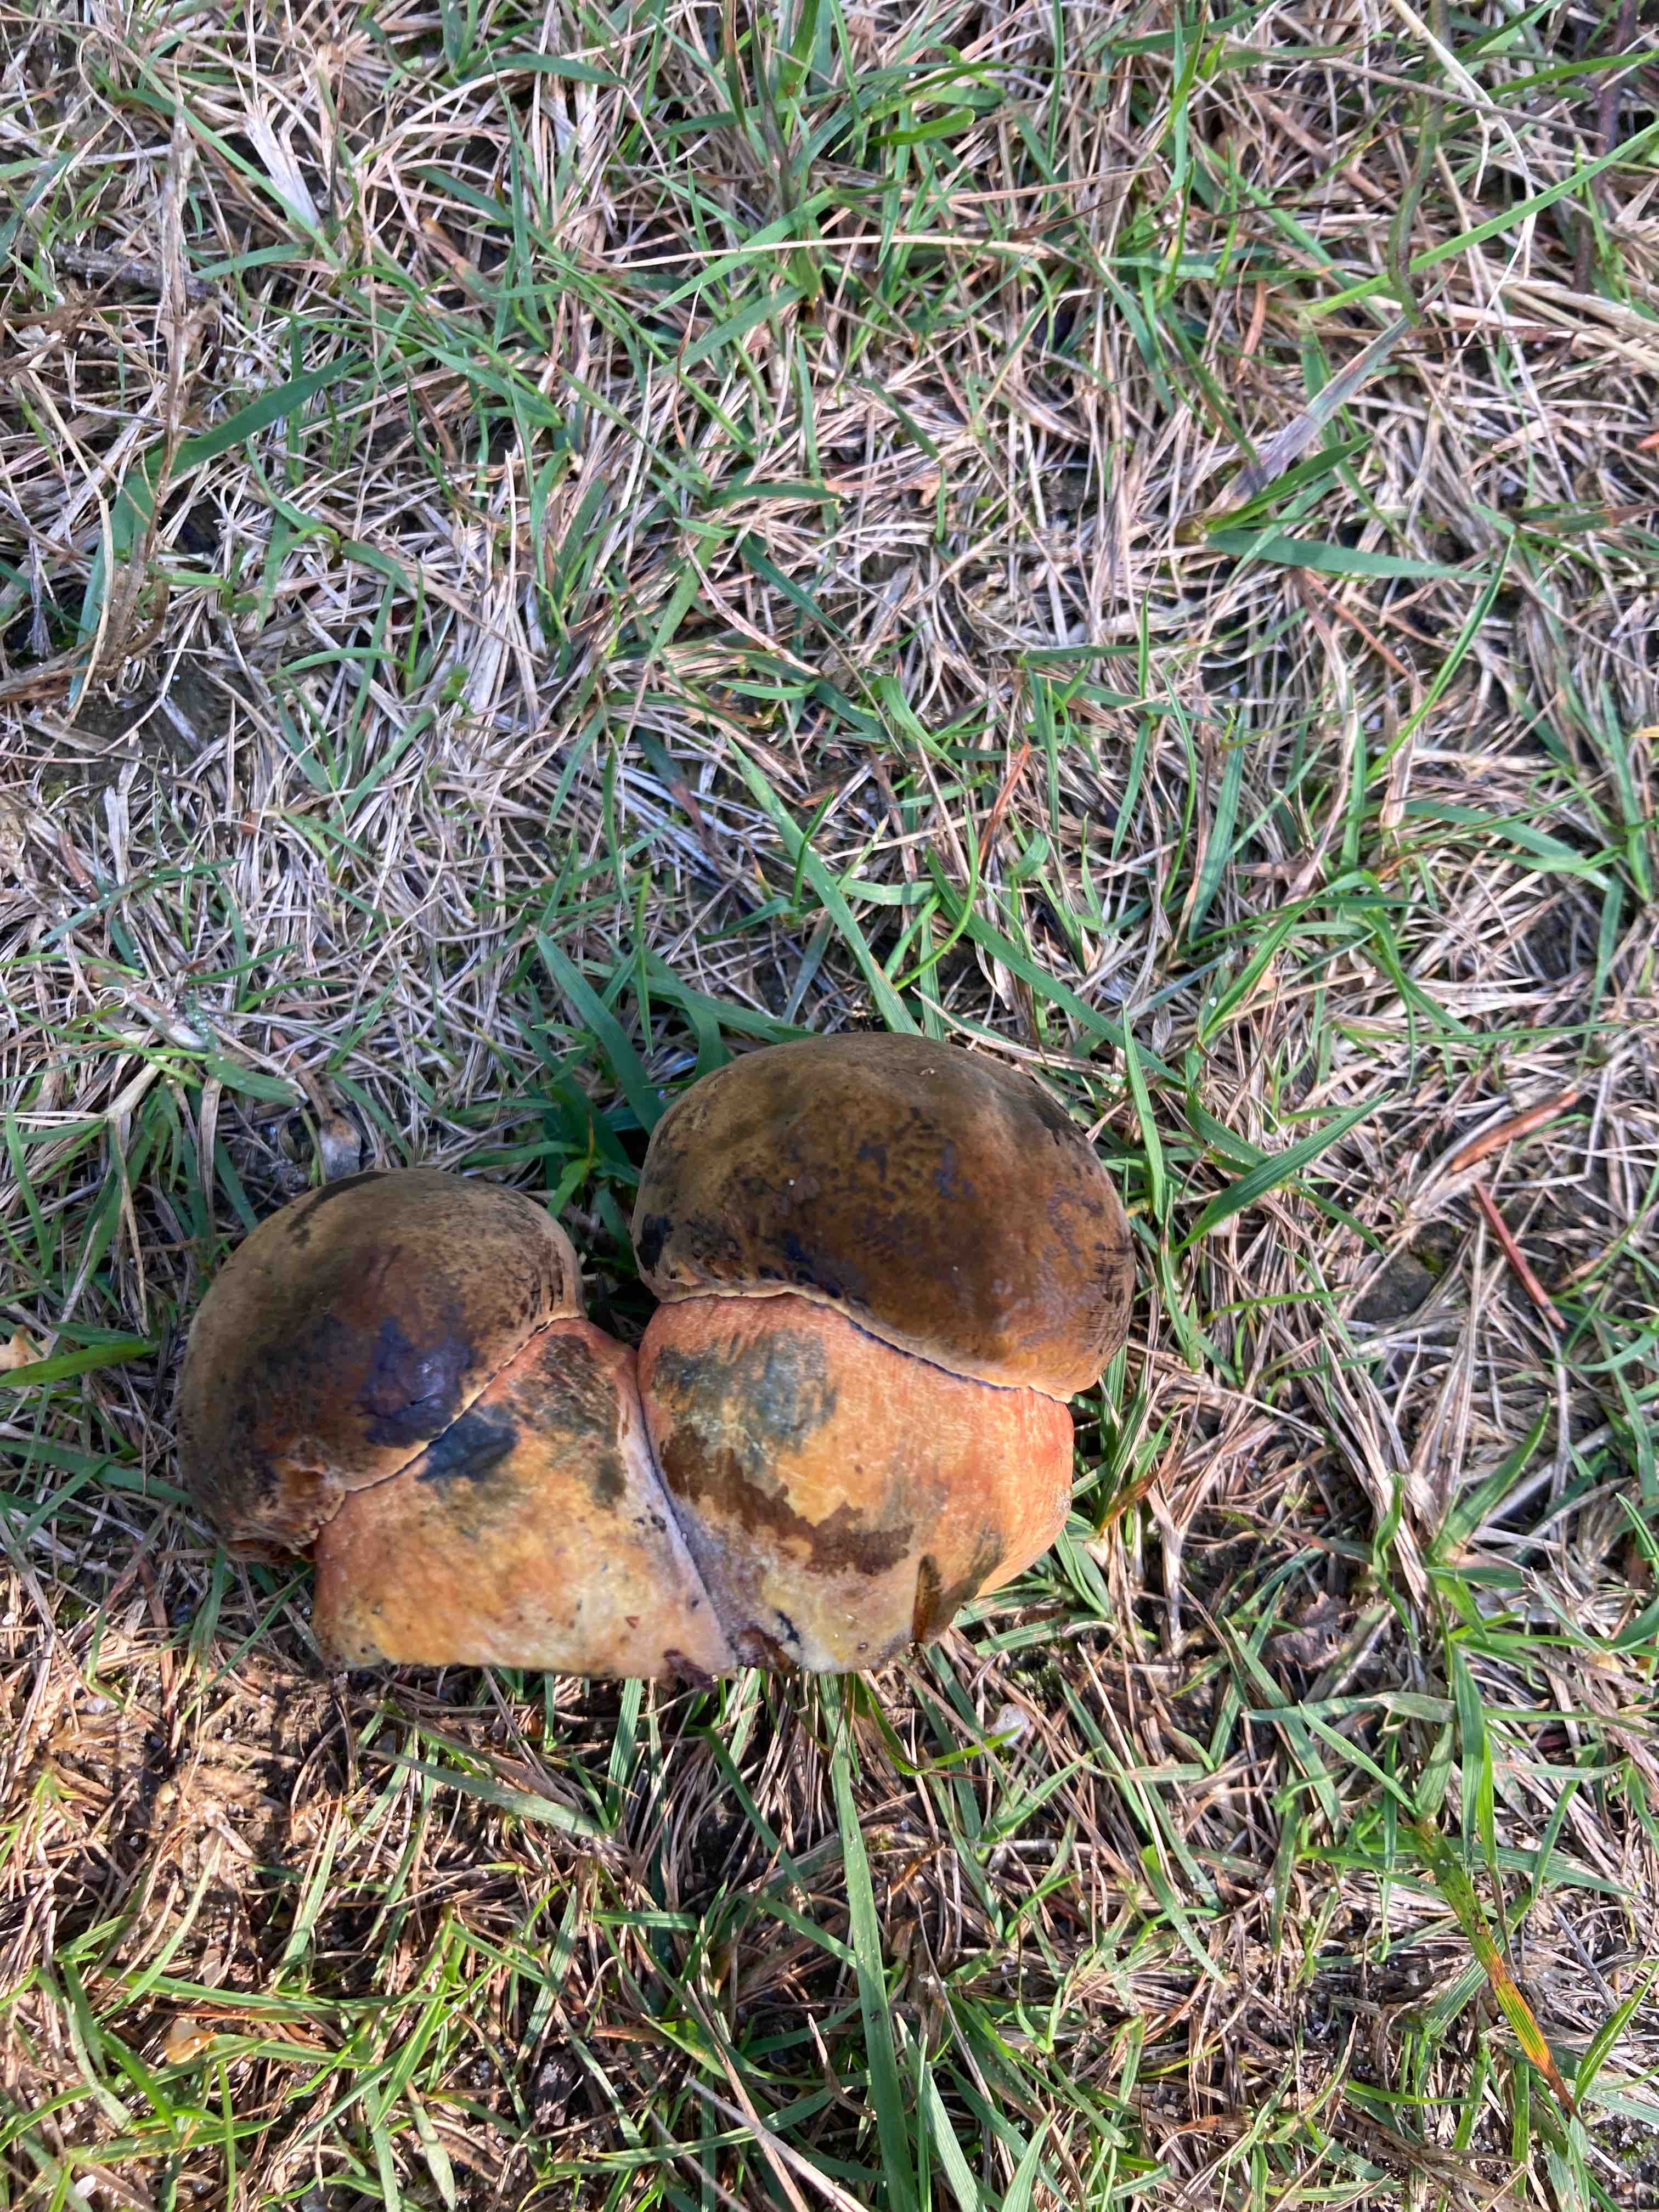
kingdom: Fungi
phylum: Basidiomycota
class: Agaricomycetes
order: Boletales
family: Boletaceae
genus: Neoboletus
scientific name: Neoboletus erythropus
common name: punktstokket indigorørhat
